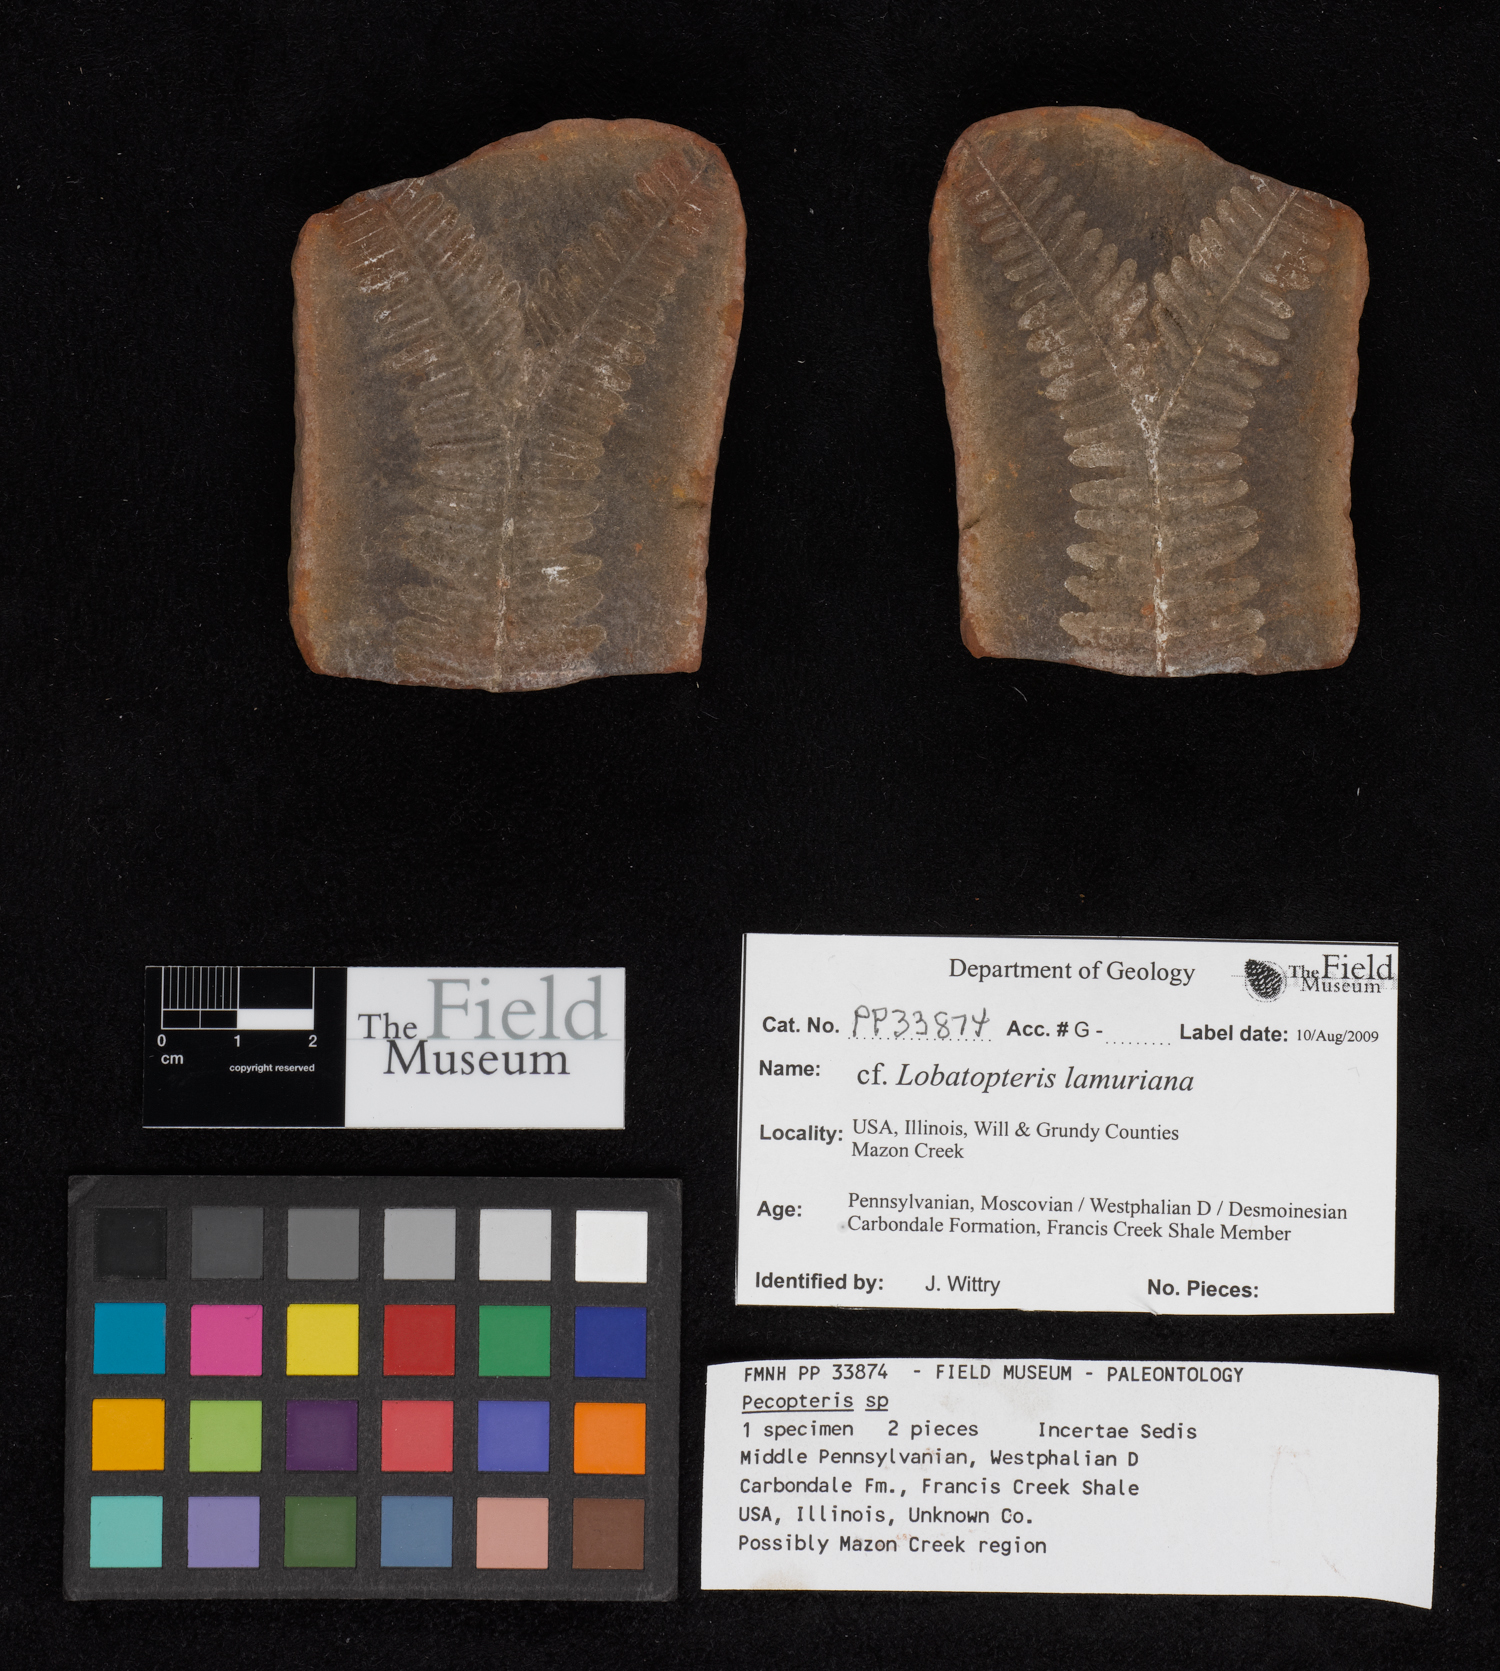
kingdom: Plantae
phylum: Tracheophyta
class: Polypodiopsida
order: Marattiales
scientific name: Marattiales
